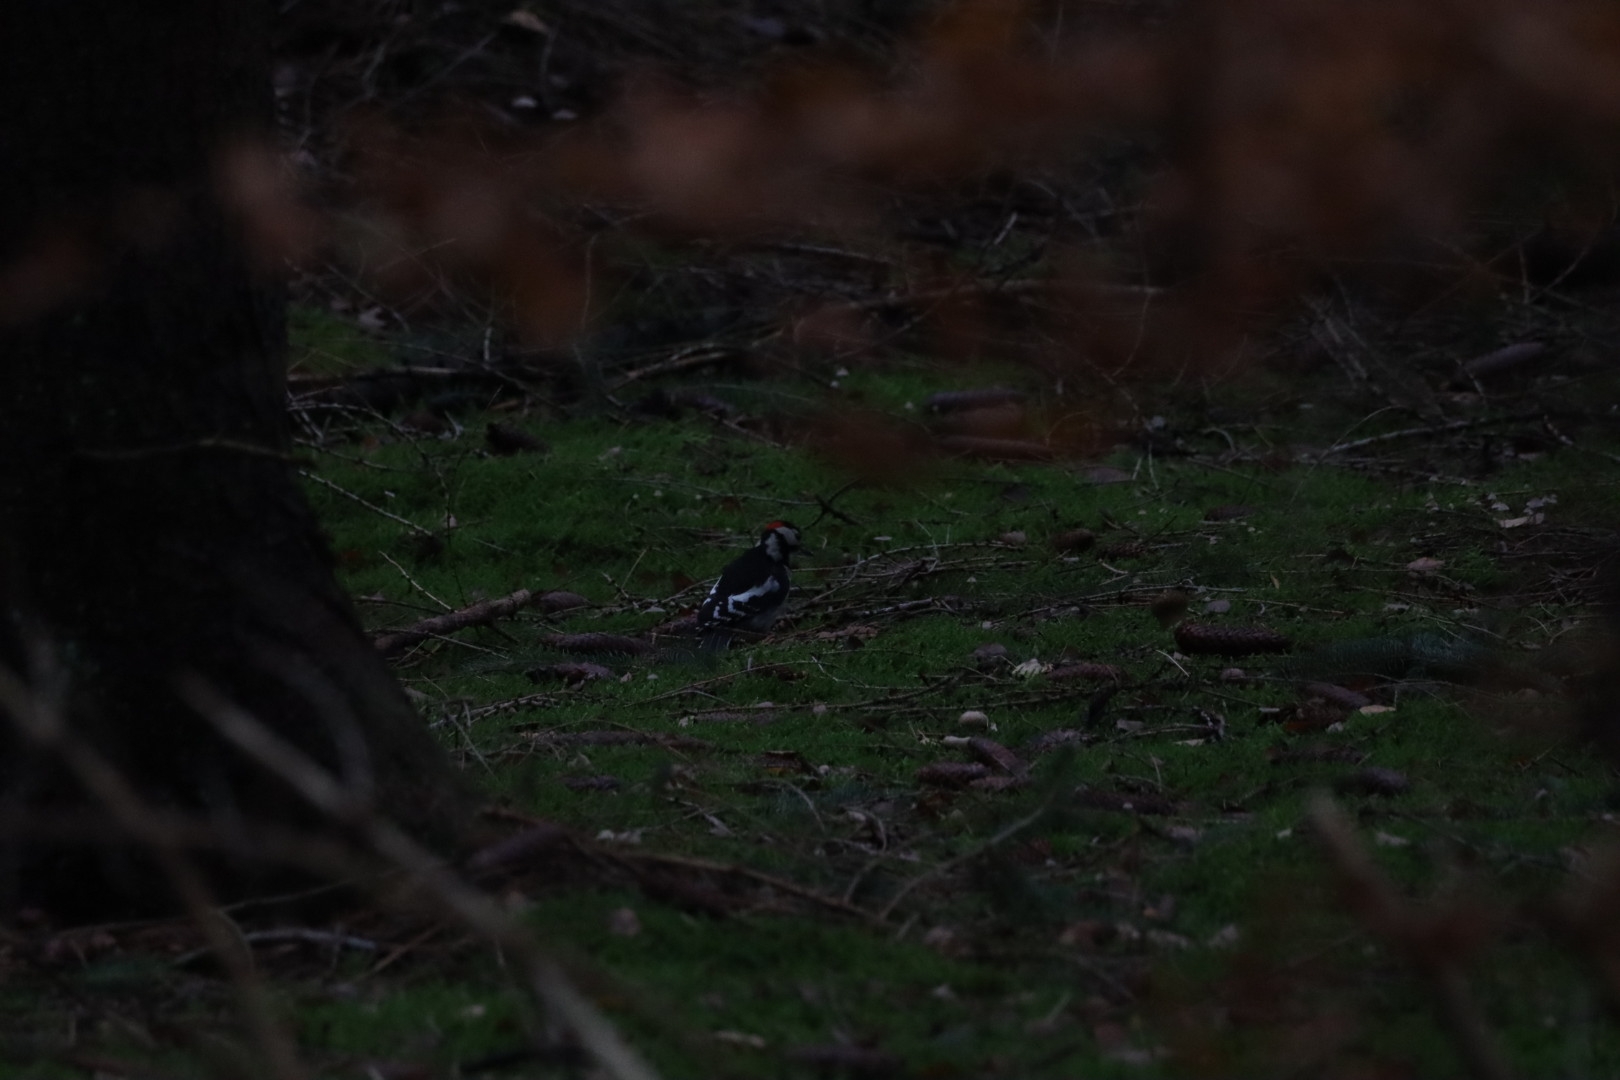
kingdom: Animalia
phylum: Chordata
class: Aves
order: Piciformes
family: Picidae
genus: Dendrocopos
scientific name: Dendrocopos major
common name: Stor flagspætte
